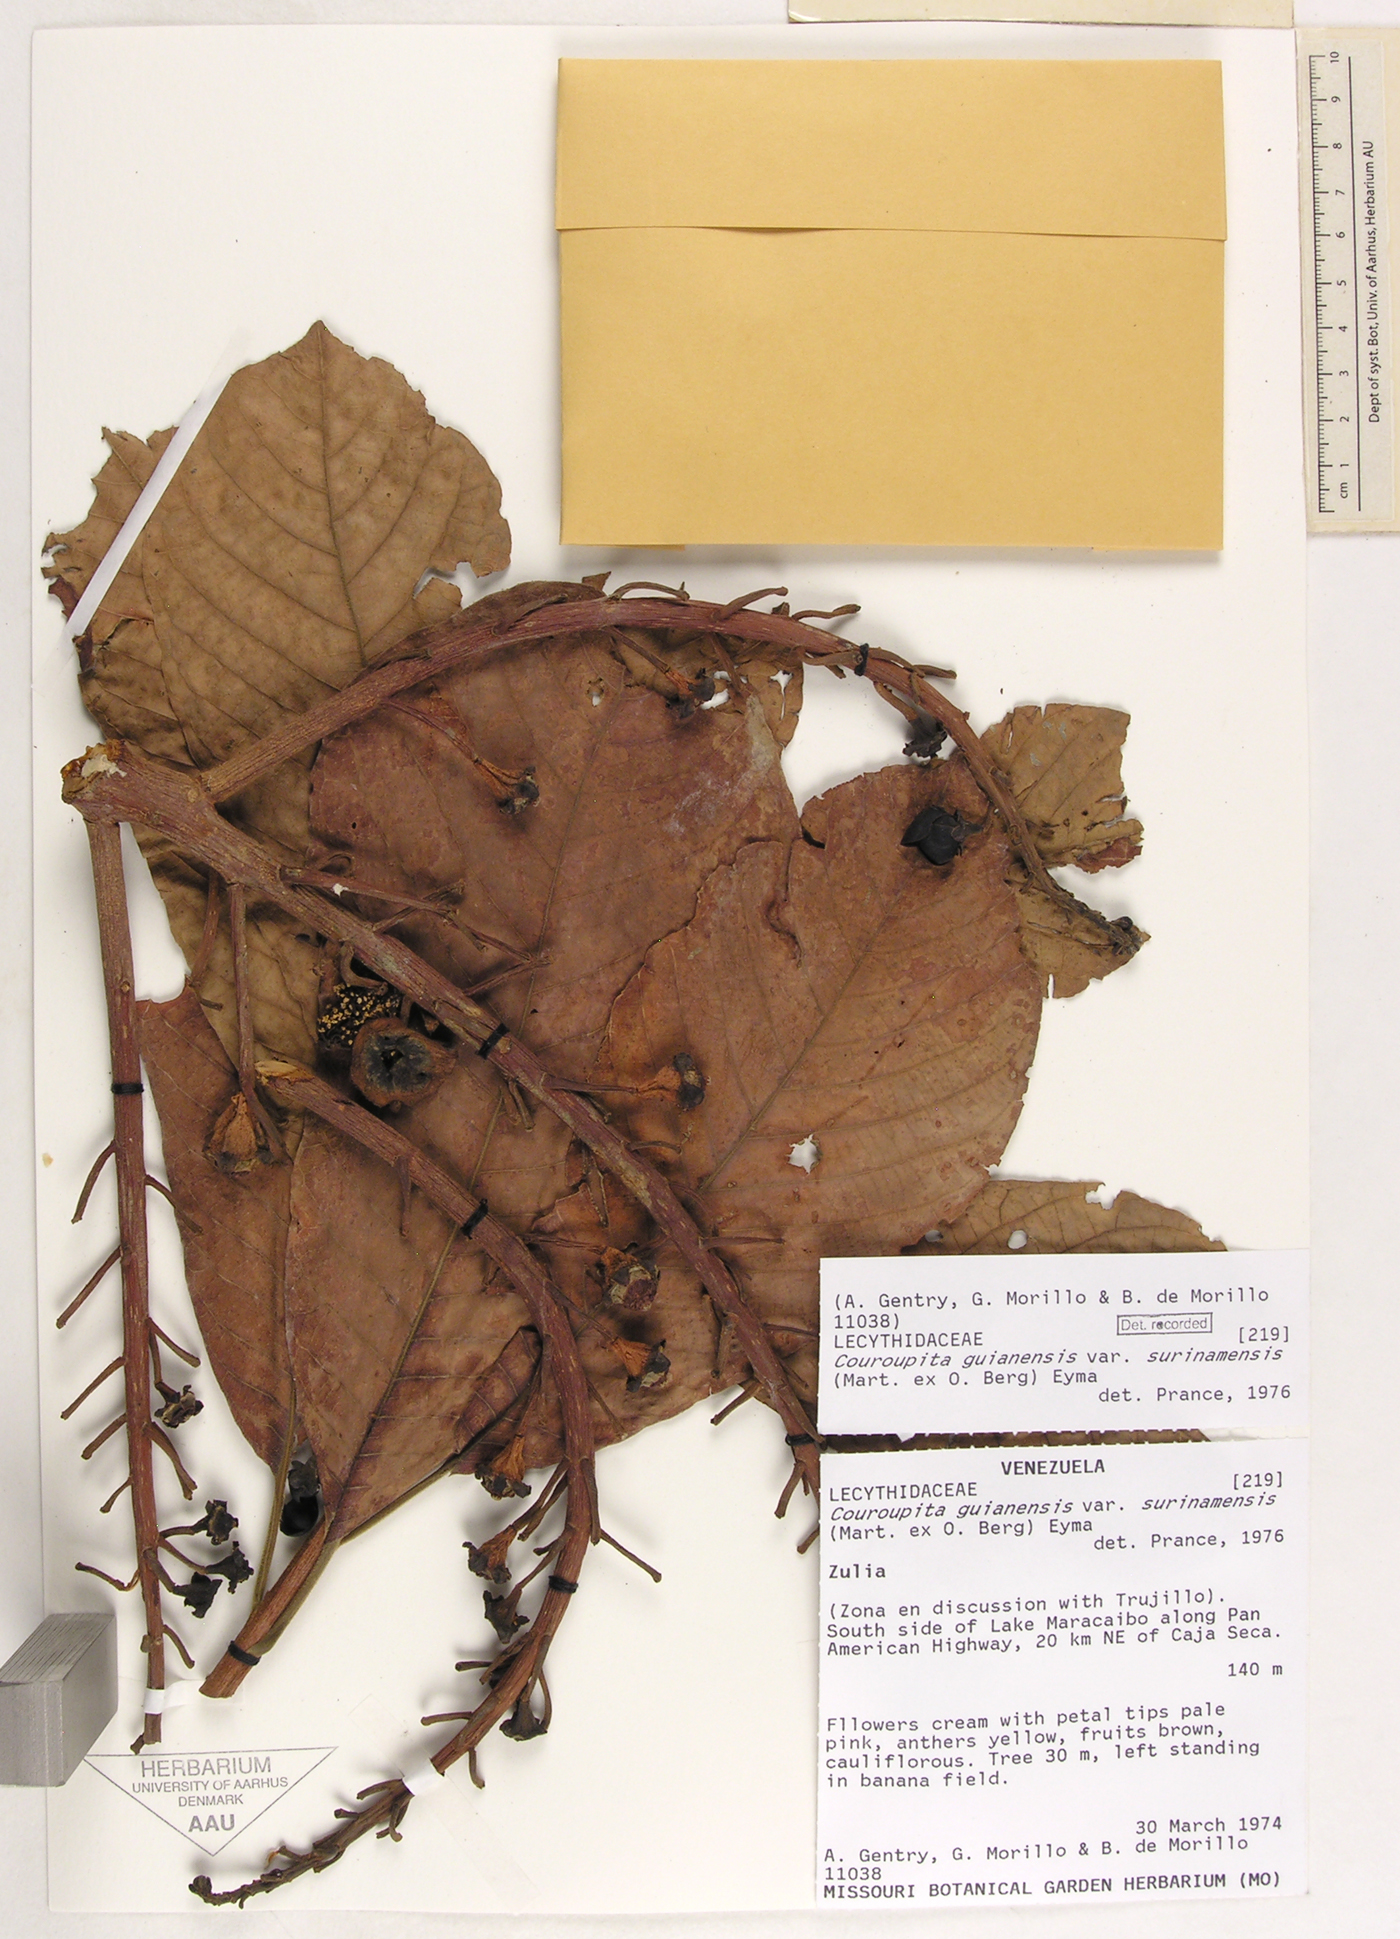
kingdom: Plantae
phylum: Tracheophyta
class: Magnoliopsida
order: Ericales
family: Lecythidaceae
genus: Couroupita
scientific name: Couroupita guianensis
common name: Cannonball tree
